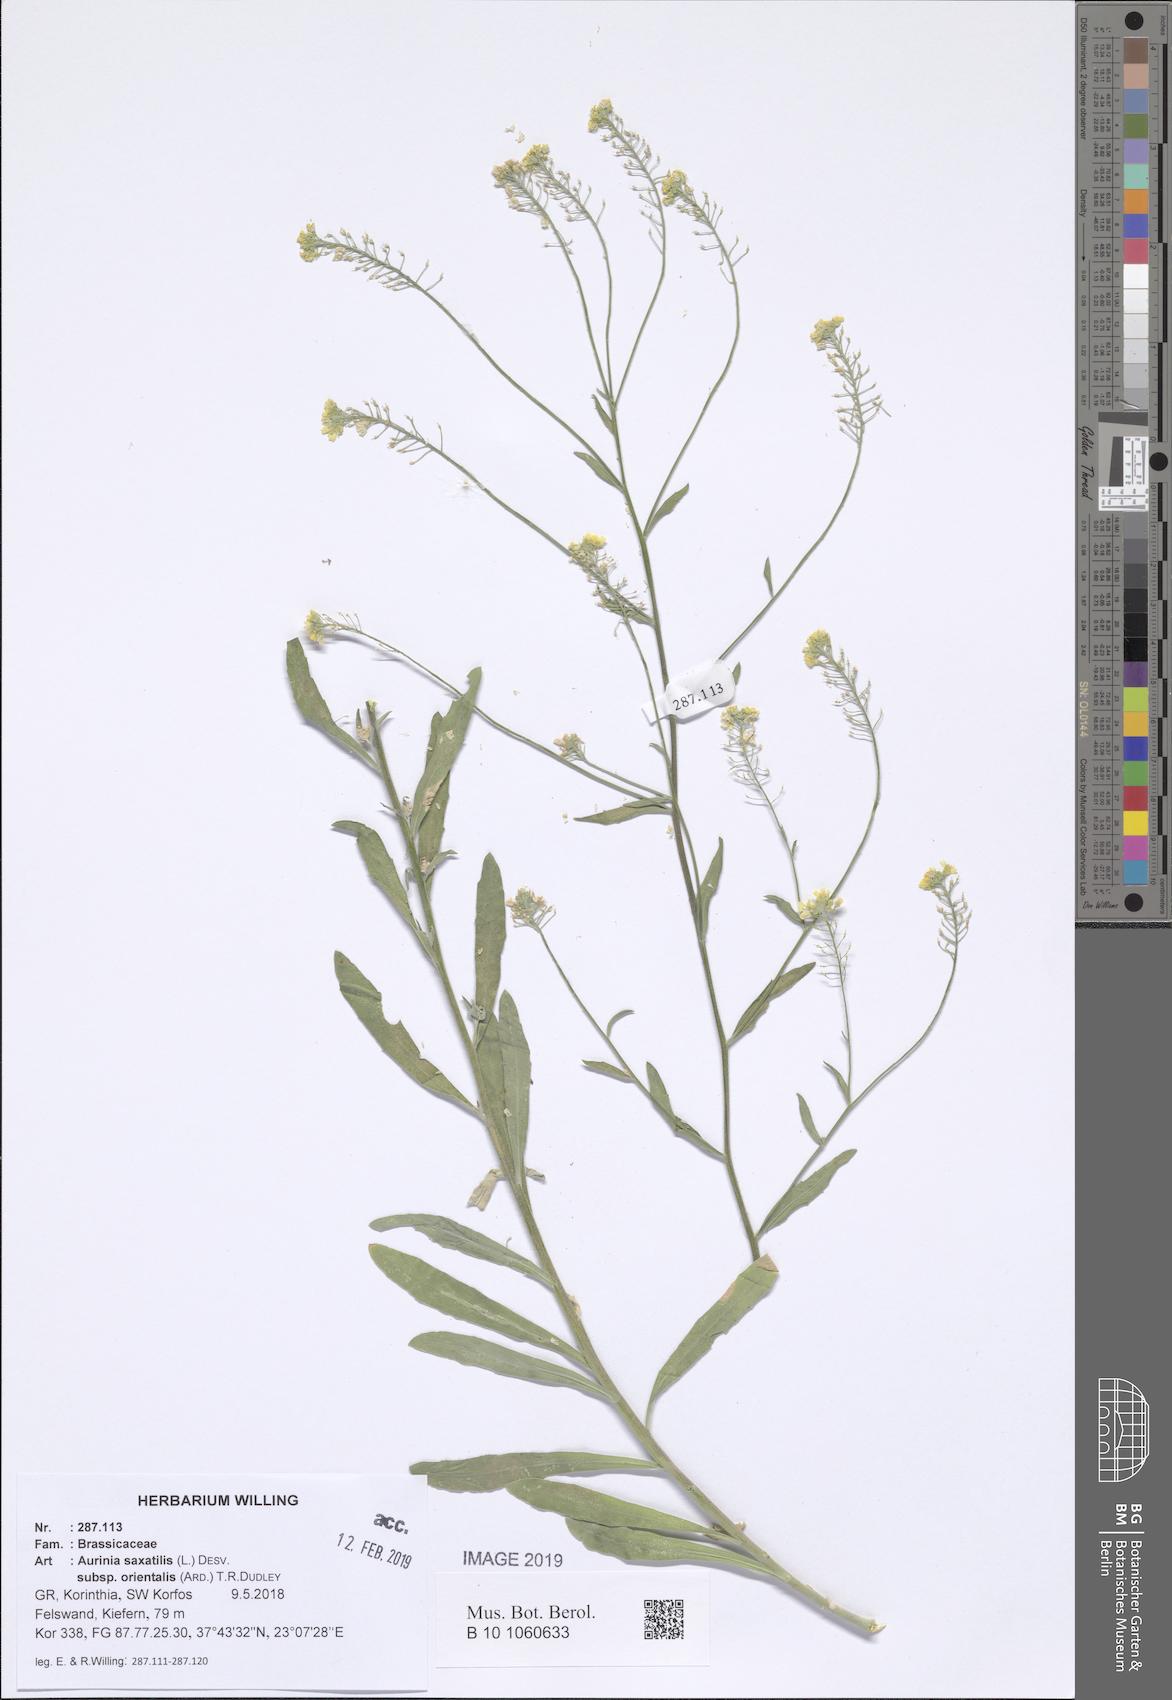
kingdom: Plantae
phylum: Tracheophyta
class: Magnoliopsida
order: Brassicales
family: Brassicaceae
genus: Aurinia
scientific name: Aurinia saxatilis
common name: Golden-tuft alyssum
